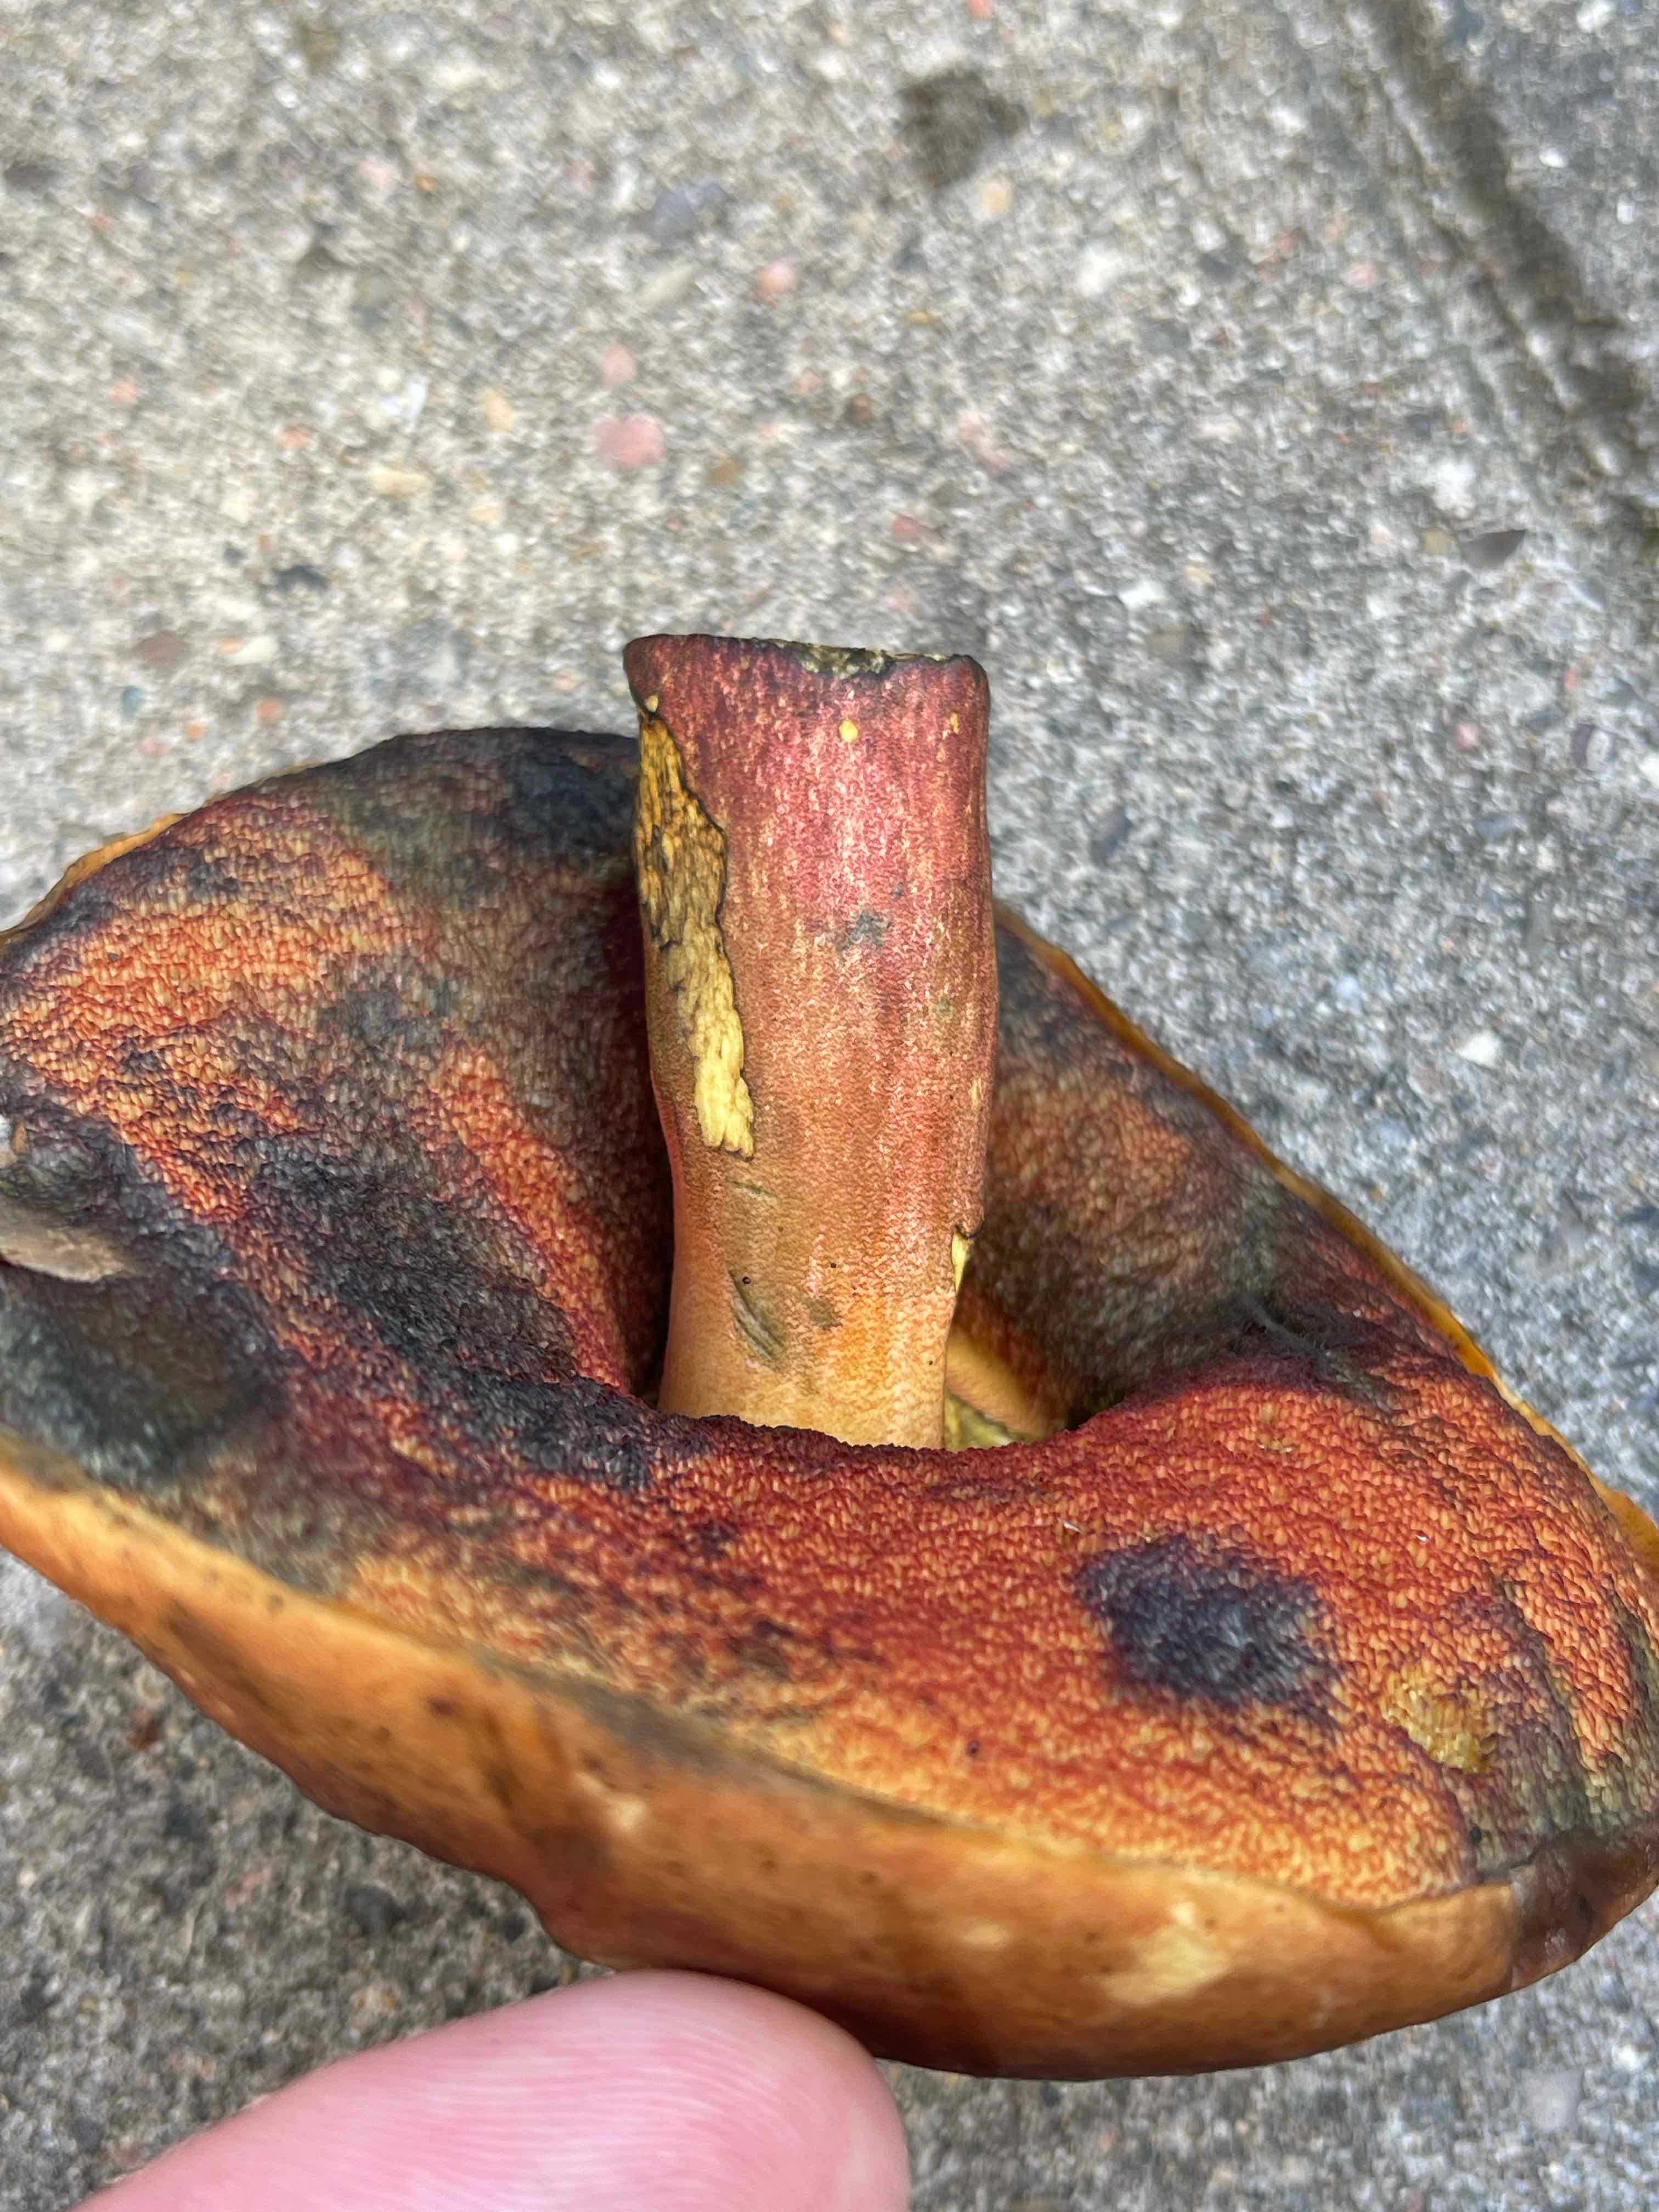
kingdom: Fungi
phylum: Basidiomycota
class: Agaricomycetes
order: Boletales
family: Boletaceae
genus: Neoboletus
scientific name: Neoboletus erythropus
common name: punktstokket indigorørhat
